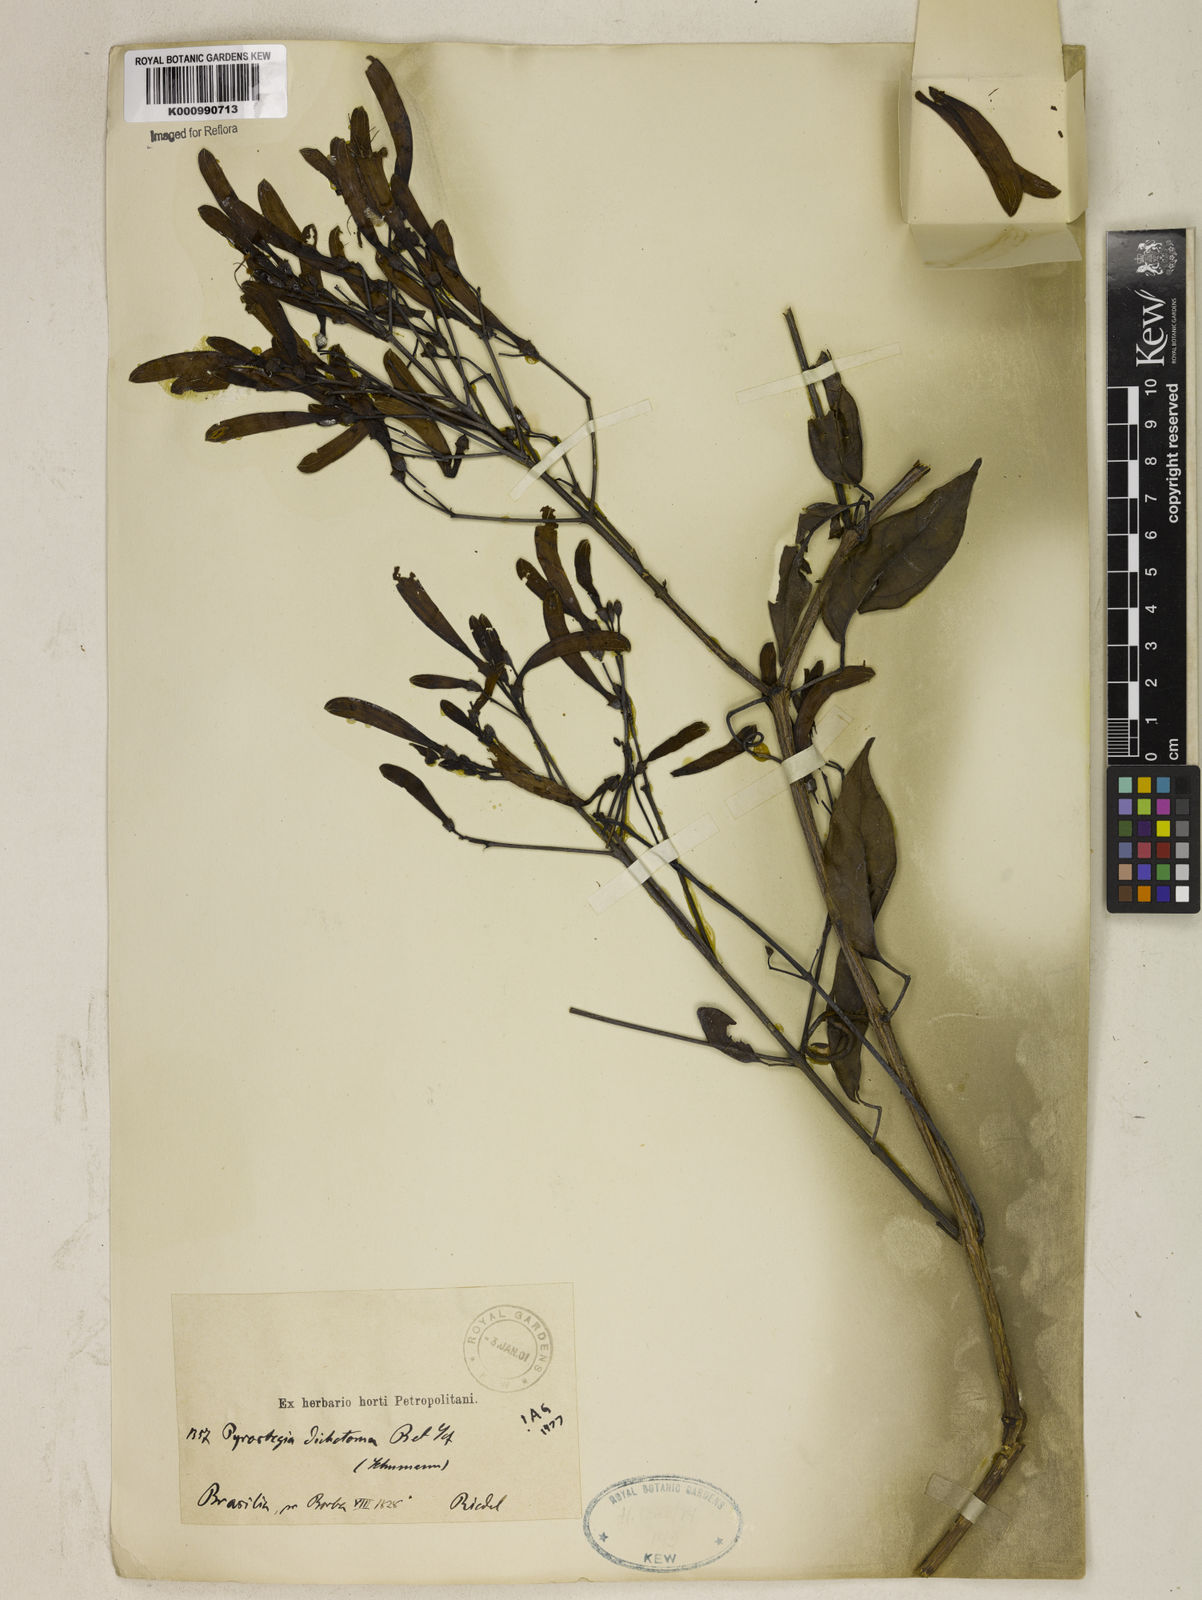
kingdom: Plantae
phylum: Tracheophyta
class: Magnoliopsida
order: Lamiales
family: Bignoniaceae
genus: Pyrostegia
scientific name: Pyrostegia
